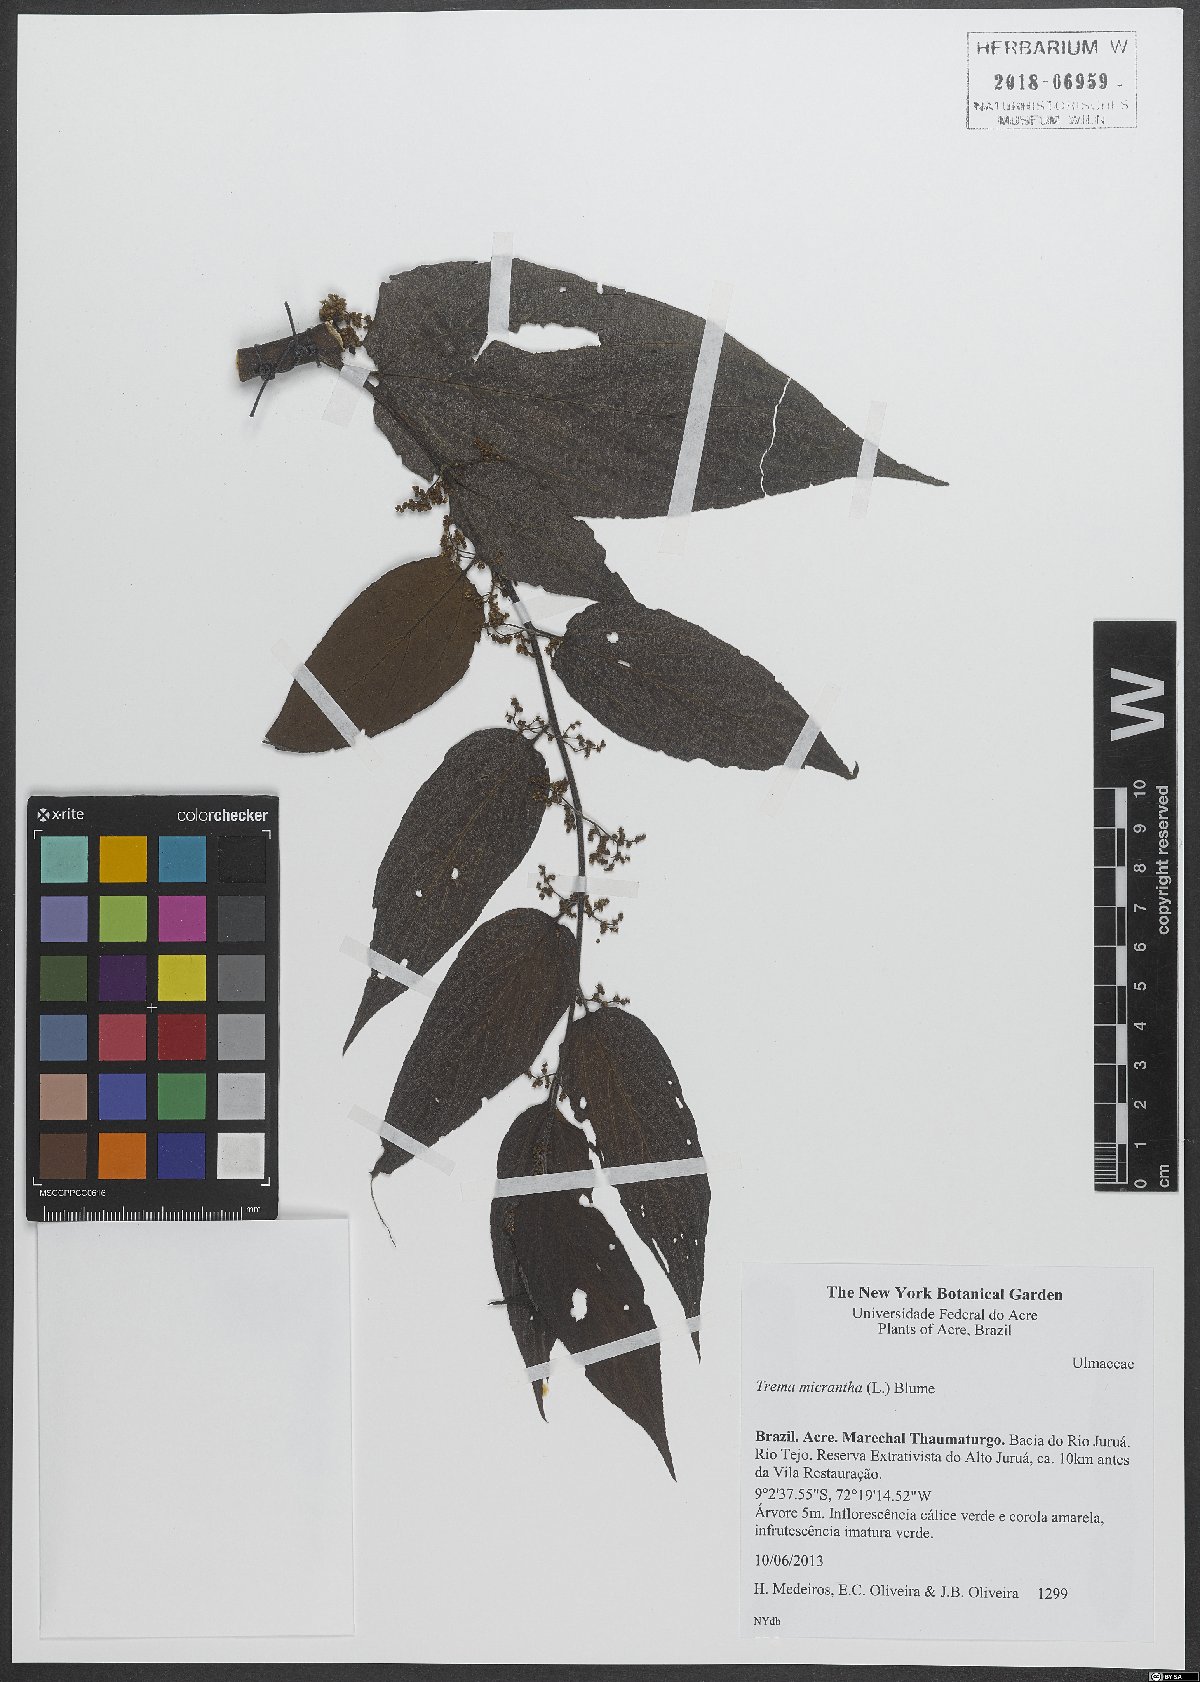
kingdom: Plantae
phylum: Tracheophyta
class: Magnoliopsida
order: Rosales
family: Cannabaceae
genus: Trema
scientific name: Trema micranthum
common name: Jamaican nettletree
